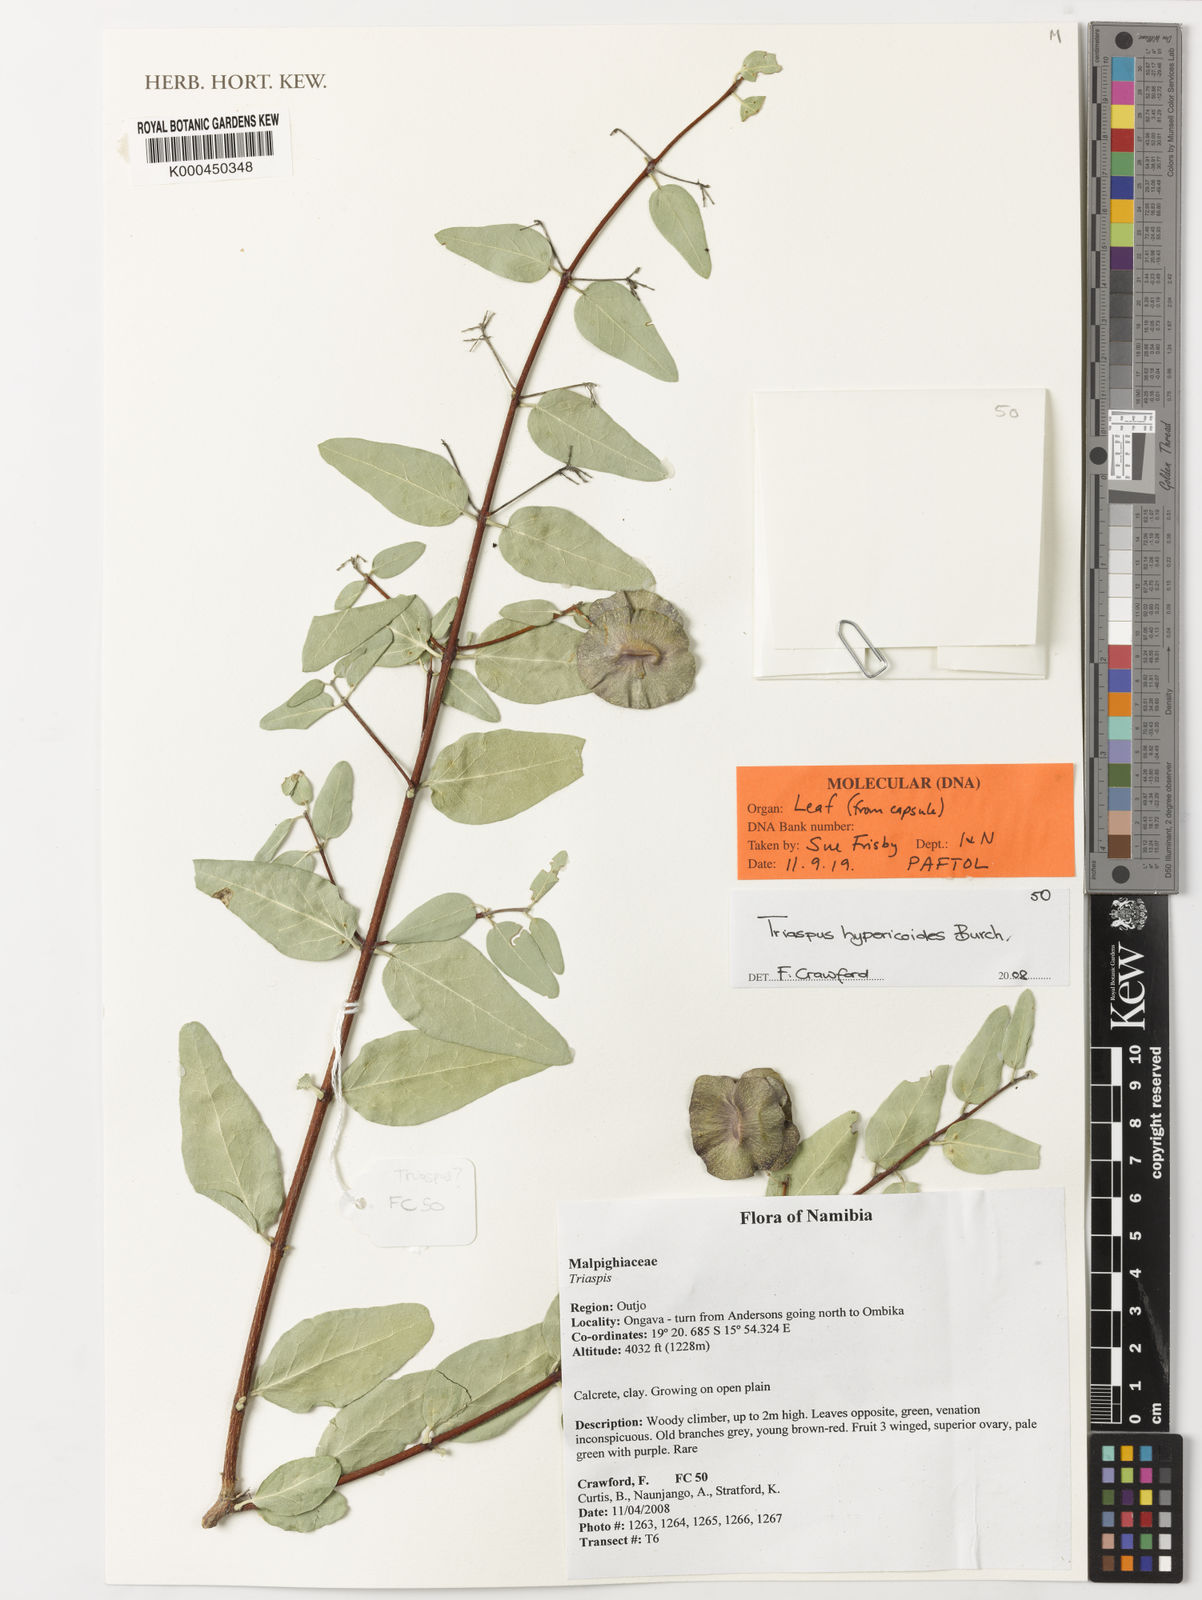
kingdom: Plantae
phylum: Tracheophyta
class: Magnoliopsida
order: Malpighiales
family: Malpighiaceae
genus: Triaspis
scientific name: Triaspis hypericoides
